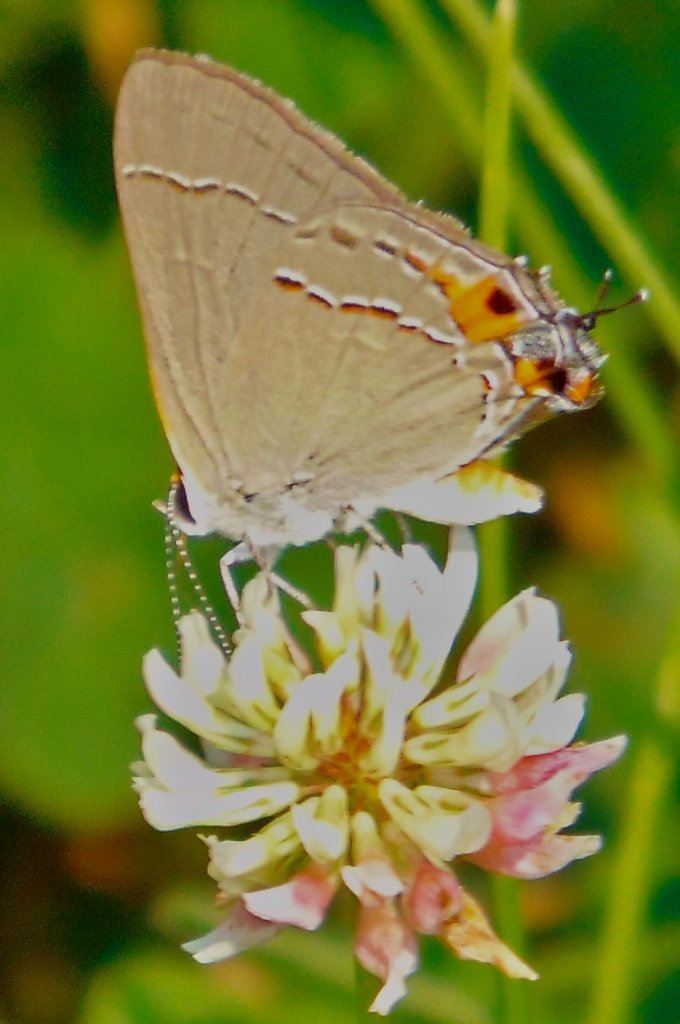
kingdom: Animalia
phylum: Arthropoda
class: Insecta
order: Lepidoptera
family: Lycaenidae
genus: Strymon
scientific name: Strymon melinus
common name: Gray Hairstreak
